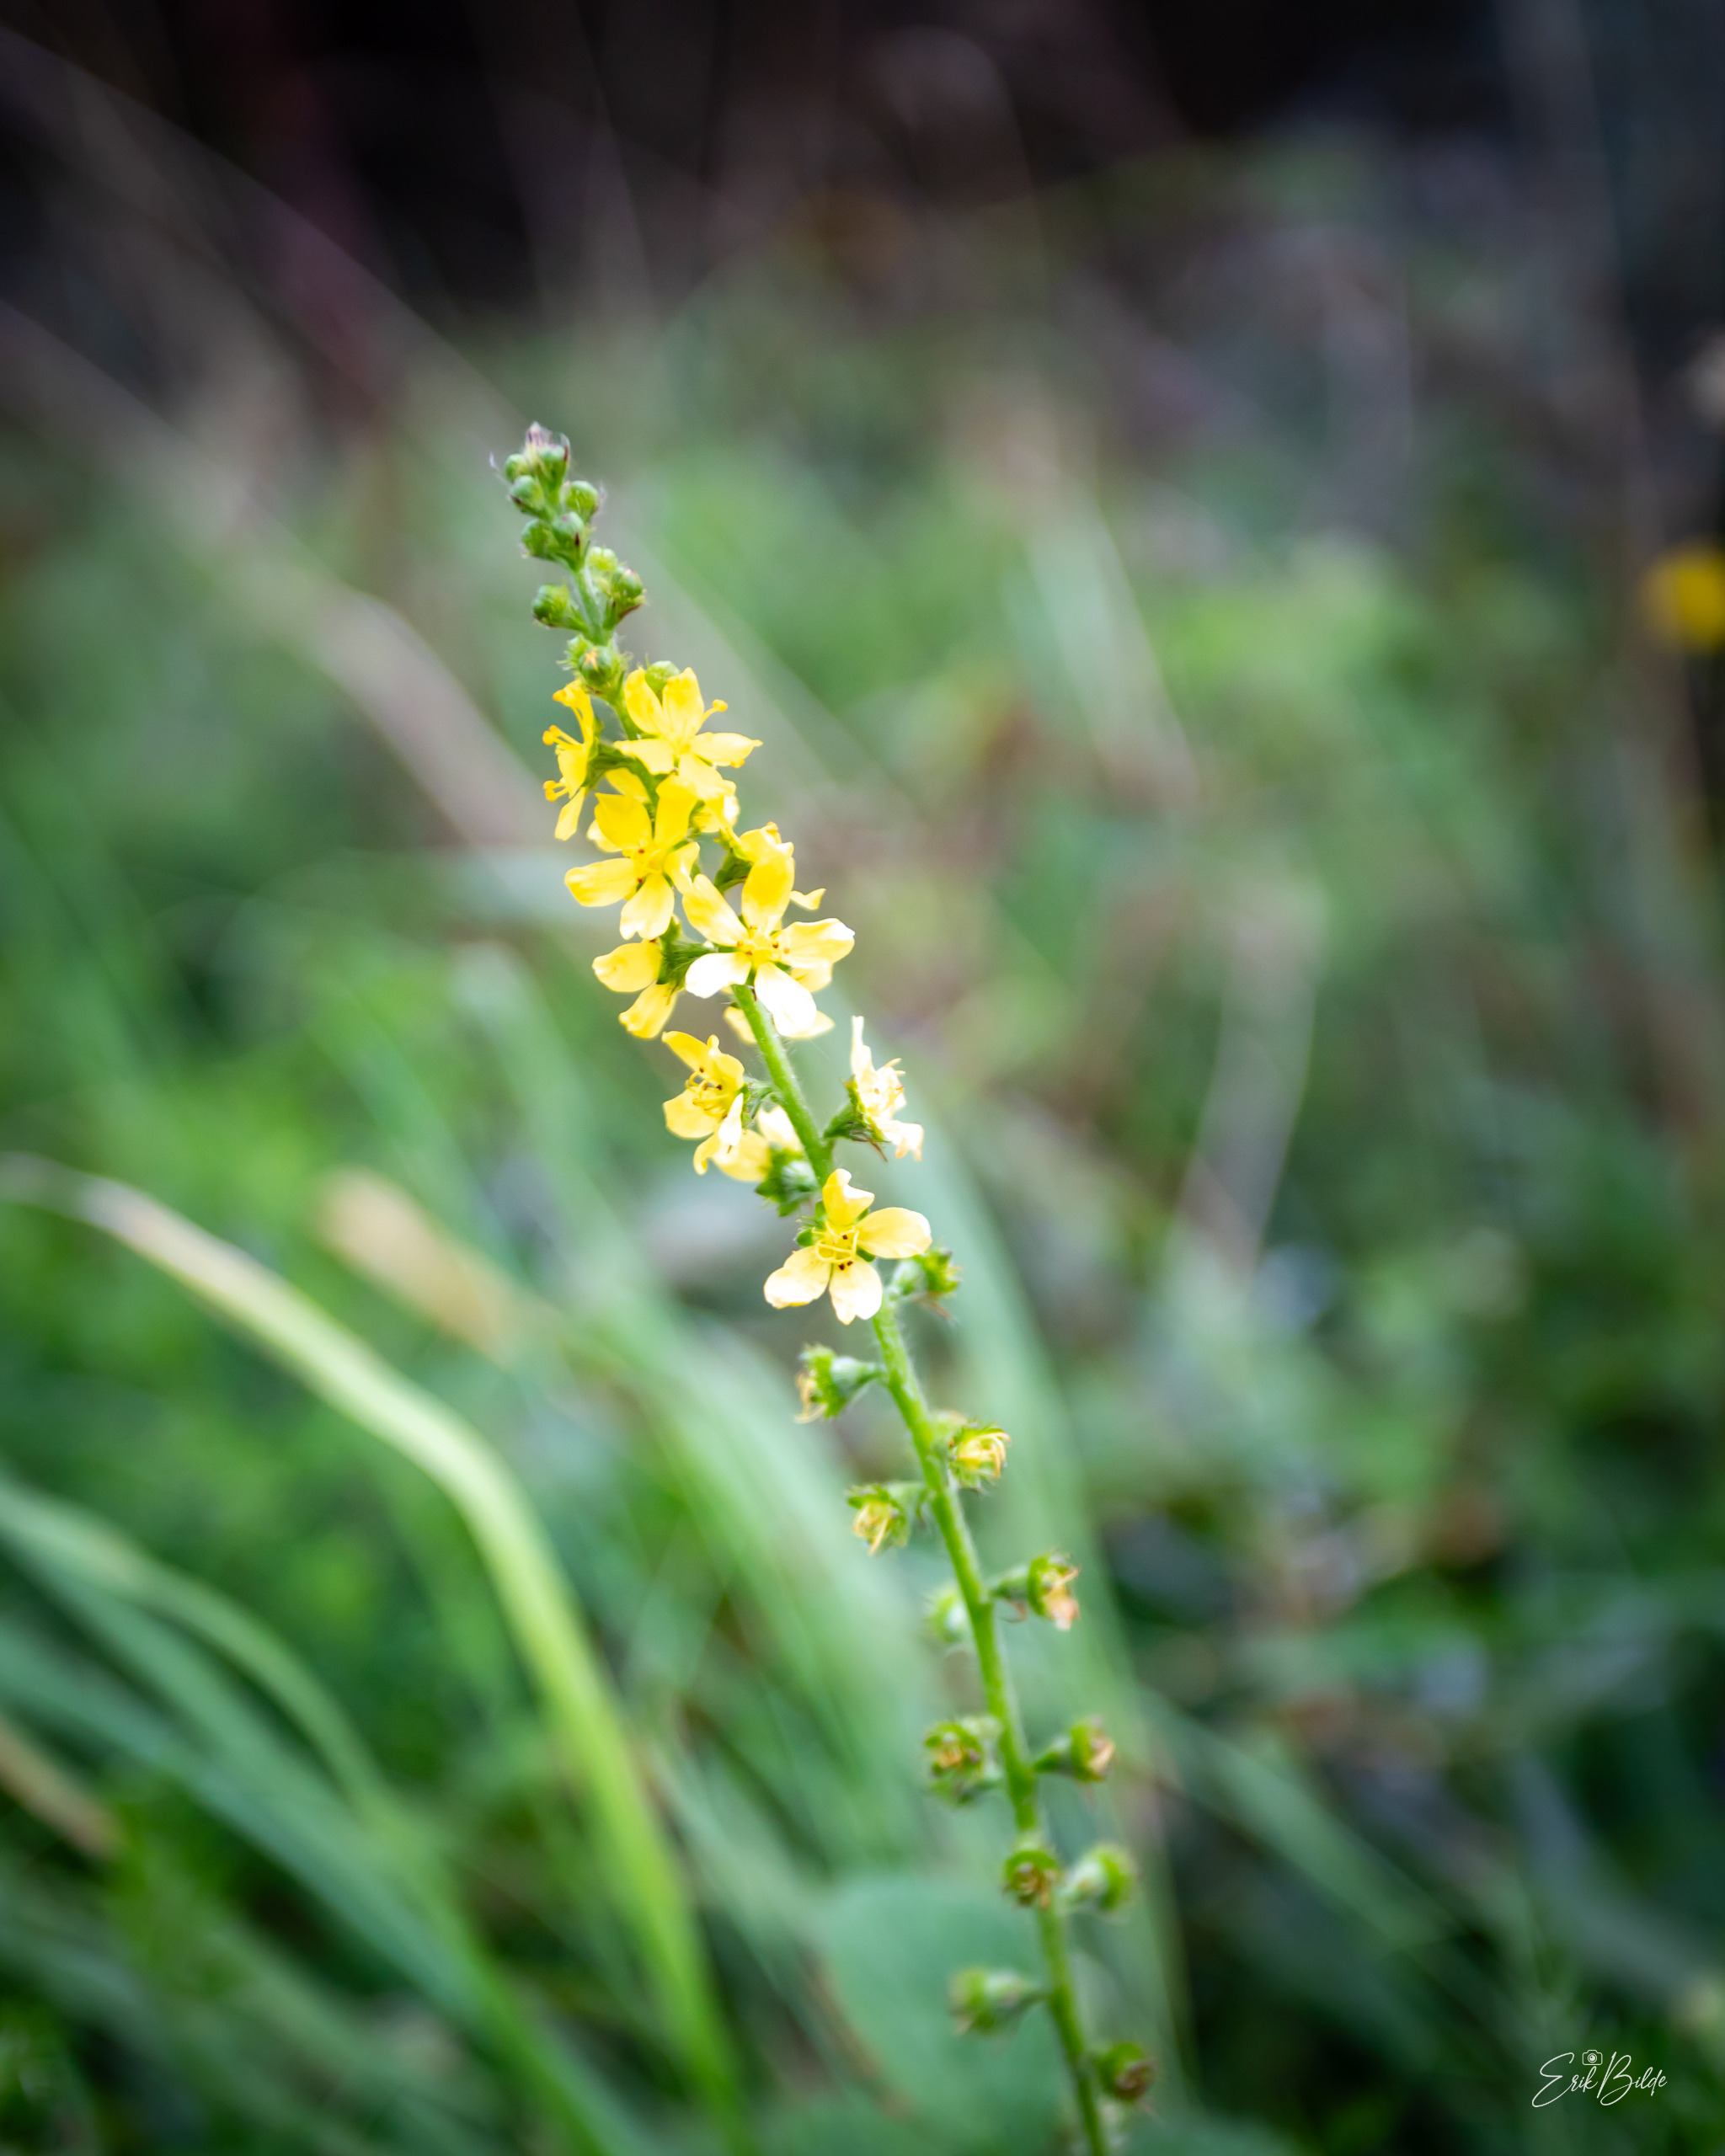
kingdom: Plantae
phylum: Tracheophyta
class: Magnoliopsida
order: Rosales
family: Rosaceae
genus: Agrimonia
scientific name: Agrimonia eupatoria
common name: Almindelig agermåne
